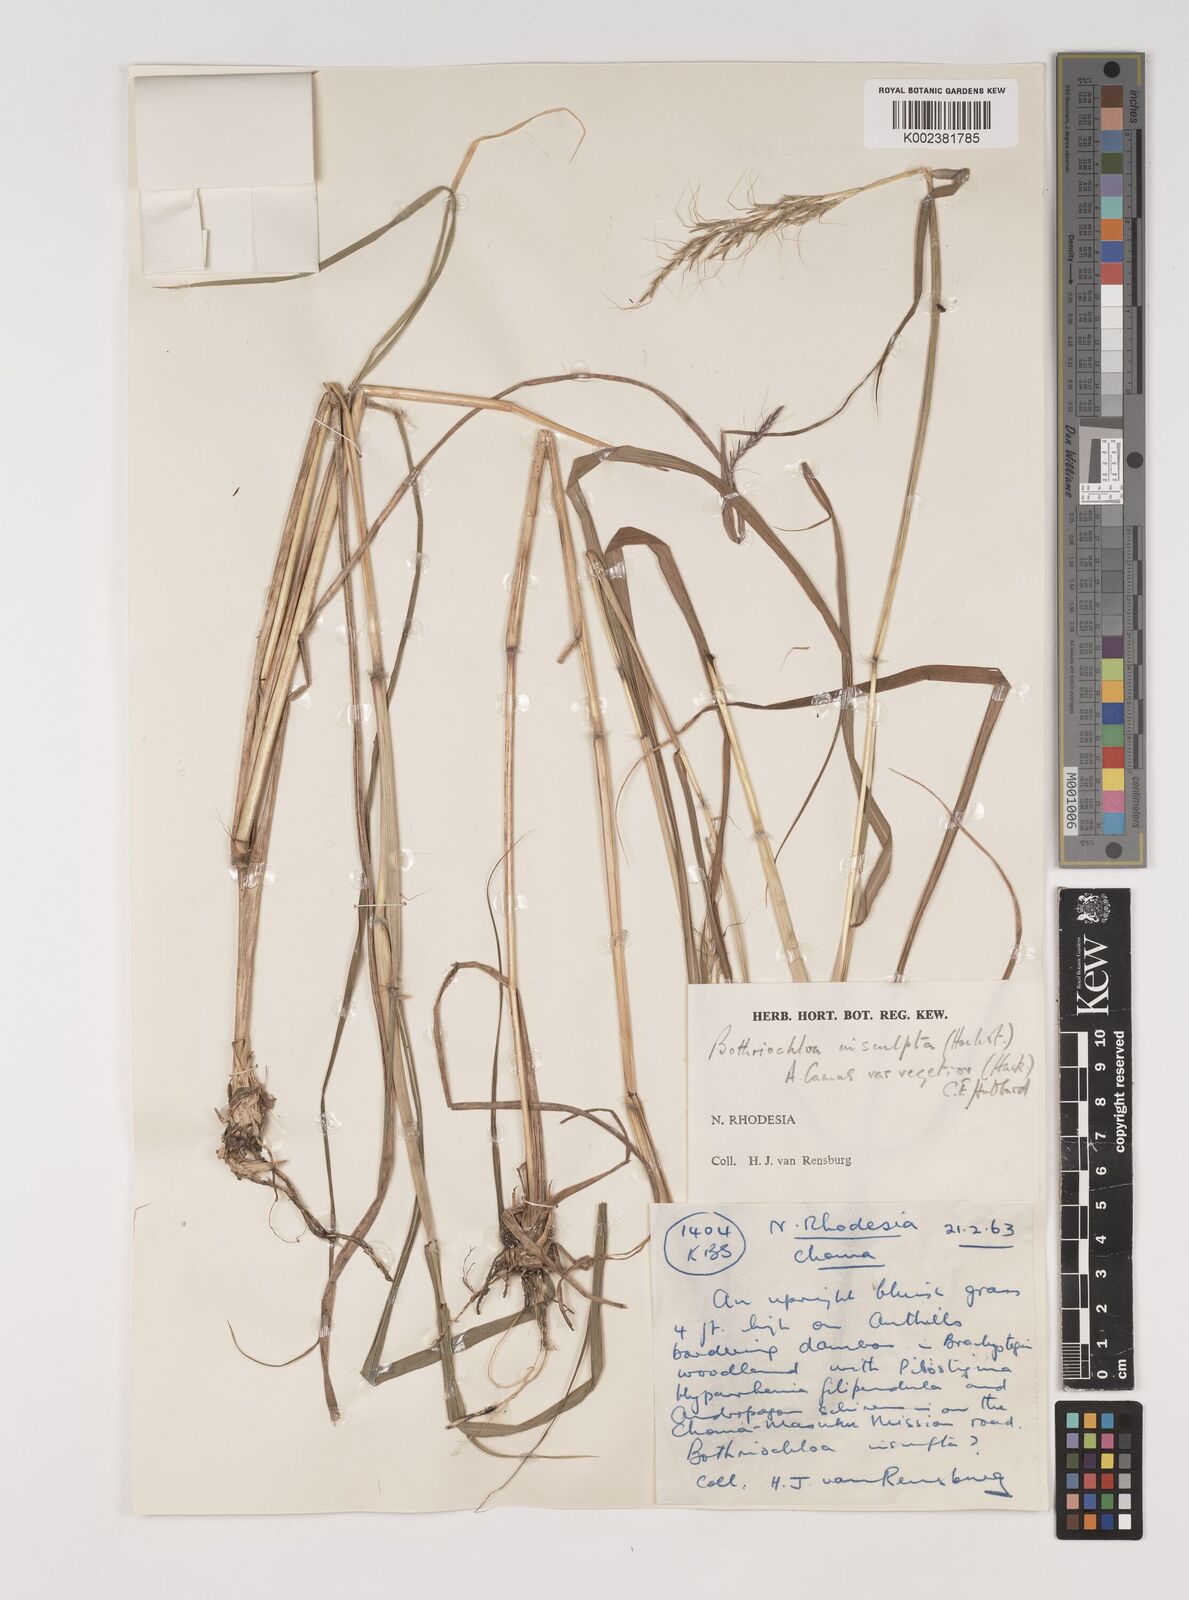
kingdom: Plantae
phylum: Tracheophyta
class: Liliopsida
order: Poales
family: Poaceae
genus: Bothriochloa
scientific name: Bothriochloa bladhii
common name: Caucasian bluestem
